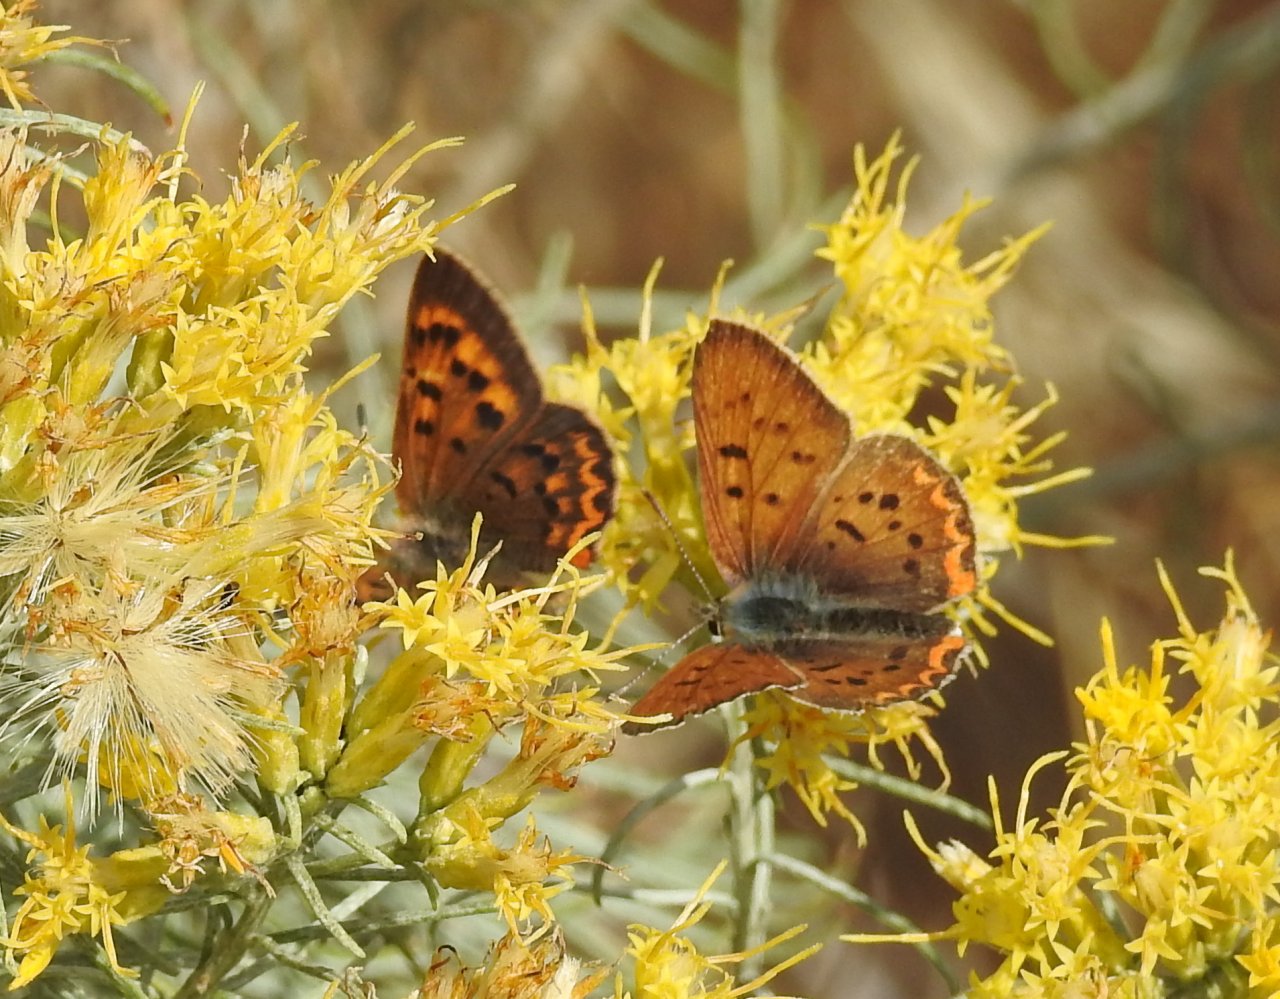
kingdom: Animalia
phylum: Arthropoda
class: Insecta
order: Lepidoptera
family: Sesiidae
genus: Sesia
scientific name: Sesia Lycaena helloides
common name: Purplish Copper
